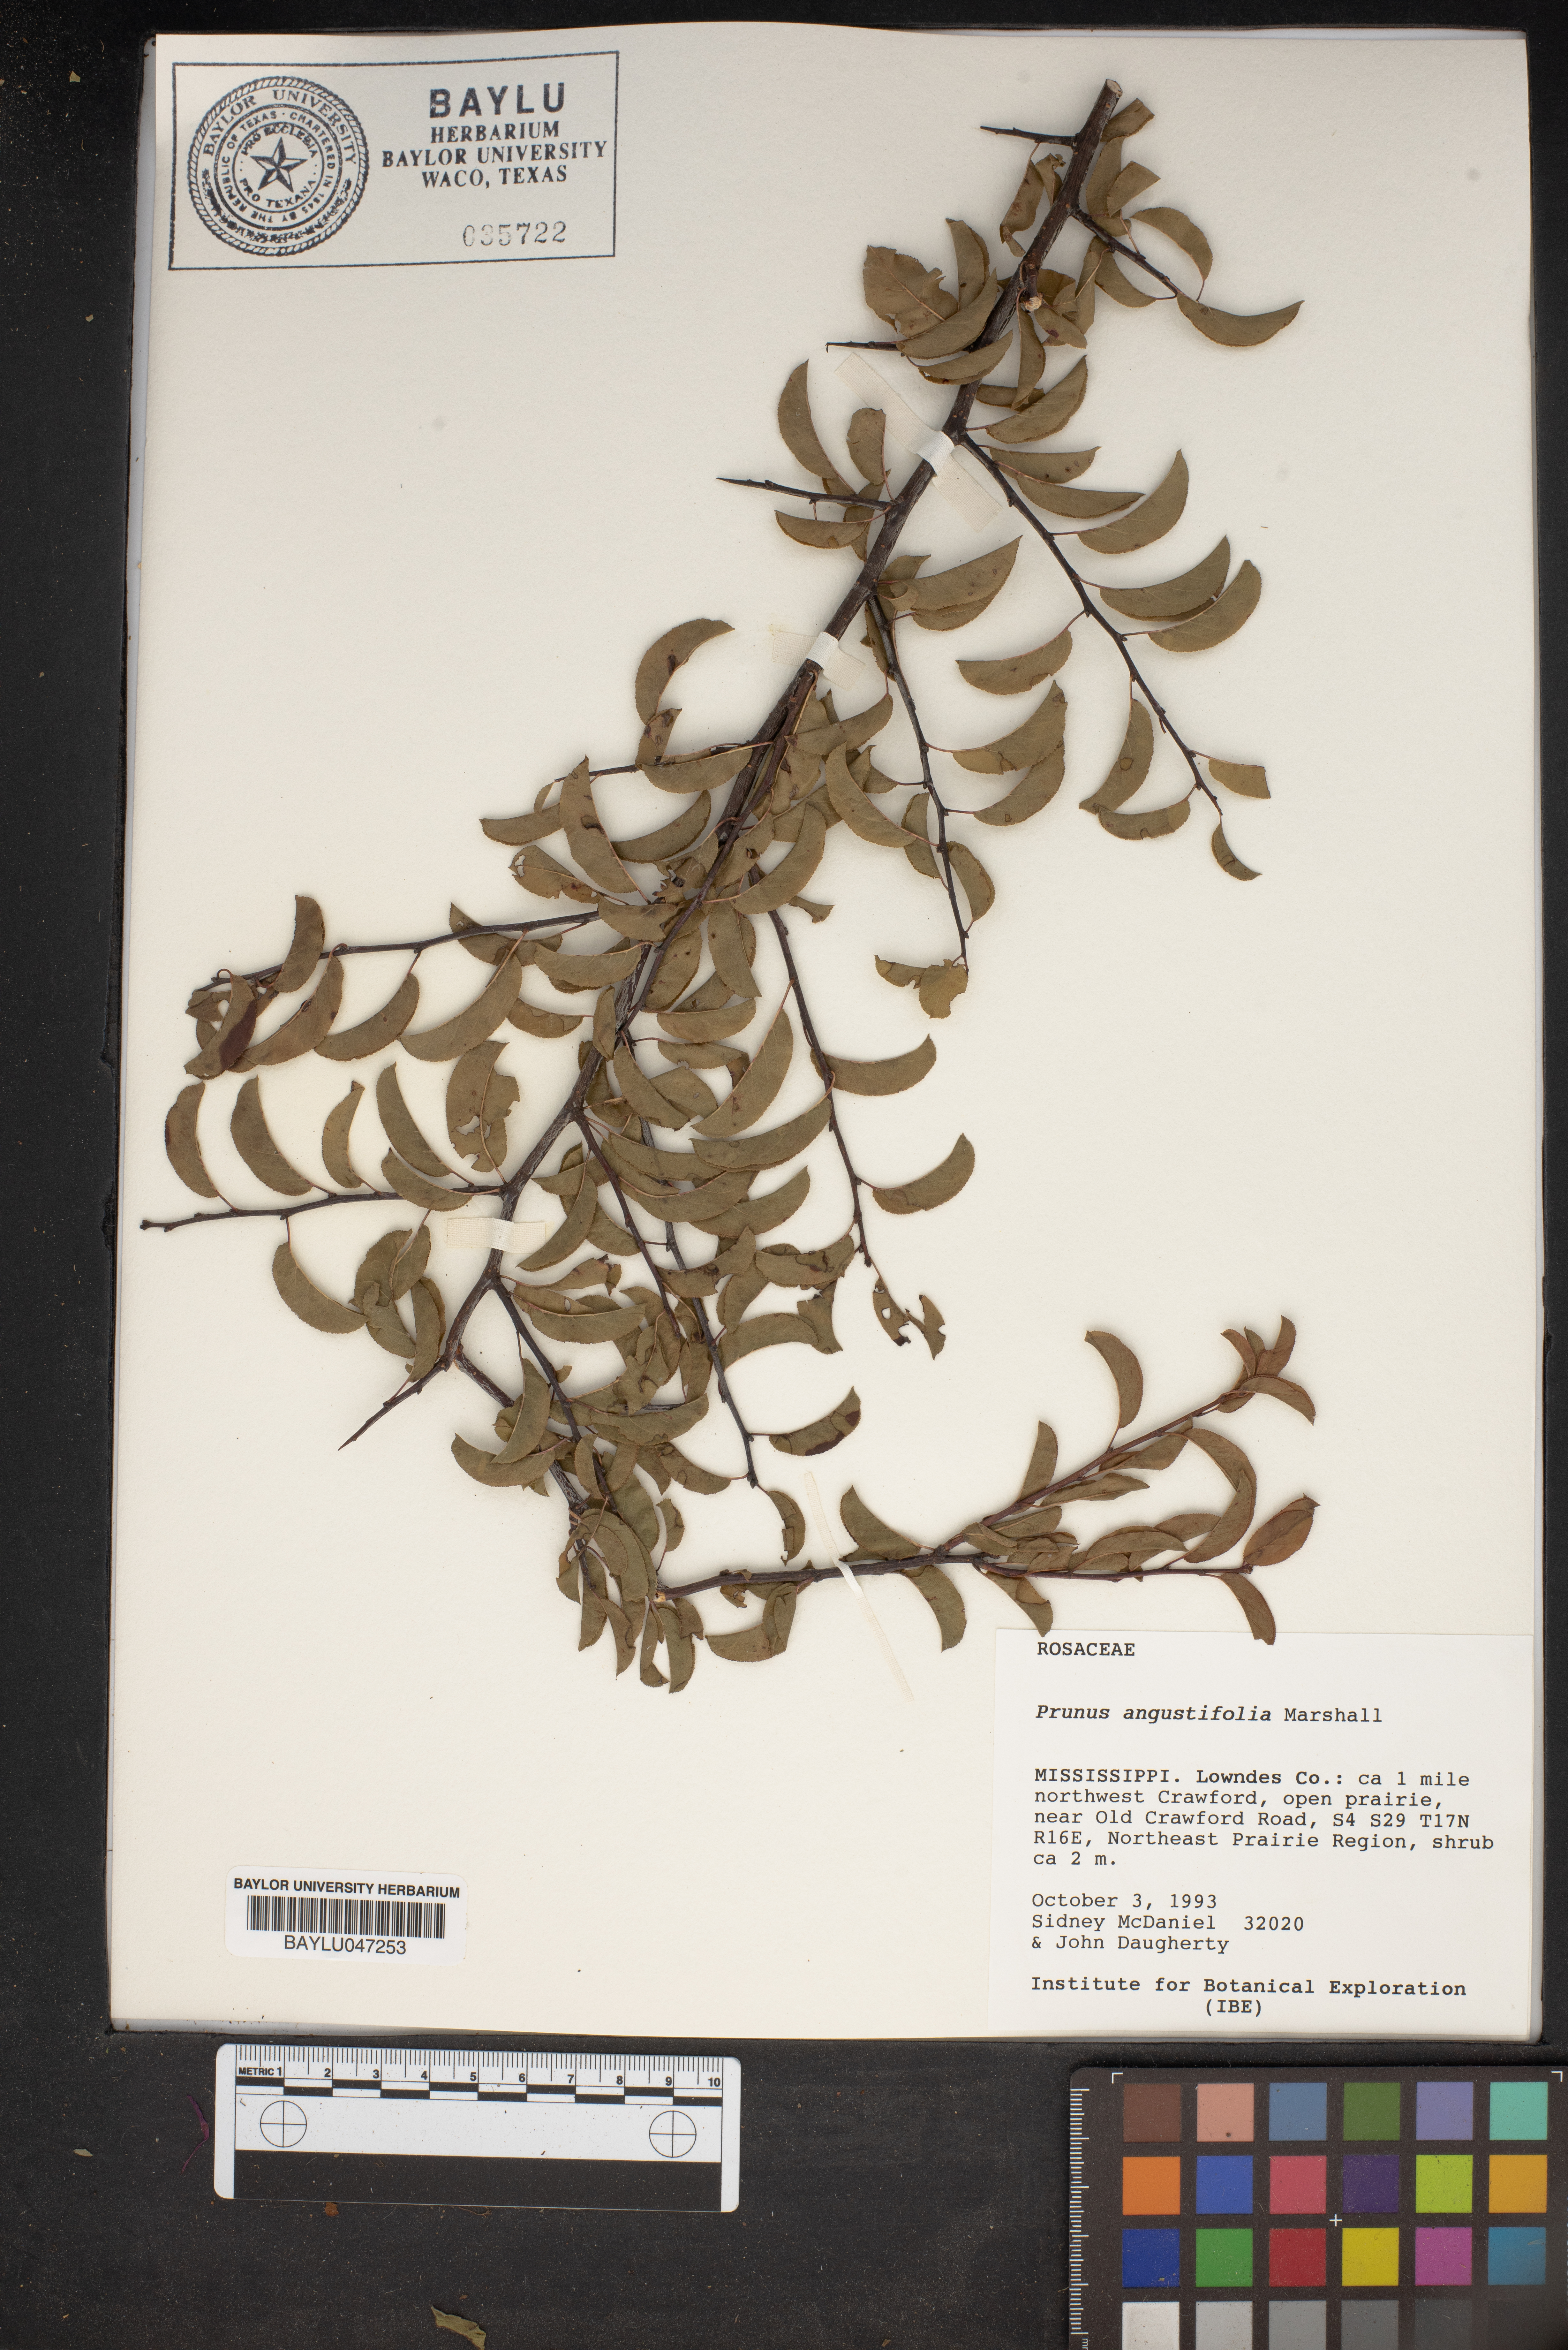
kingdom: Plantae
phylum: Tracheophyta
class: Magnoliopsida
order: Rosales
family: Rosaceae
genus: Prunus
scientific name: Prunus angustifolia
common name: Cherokee plum
